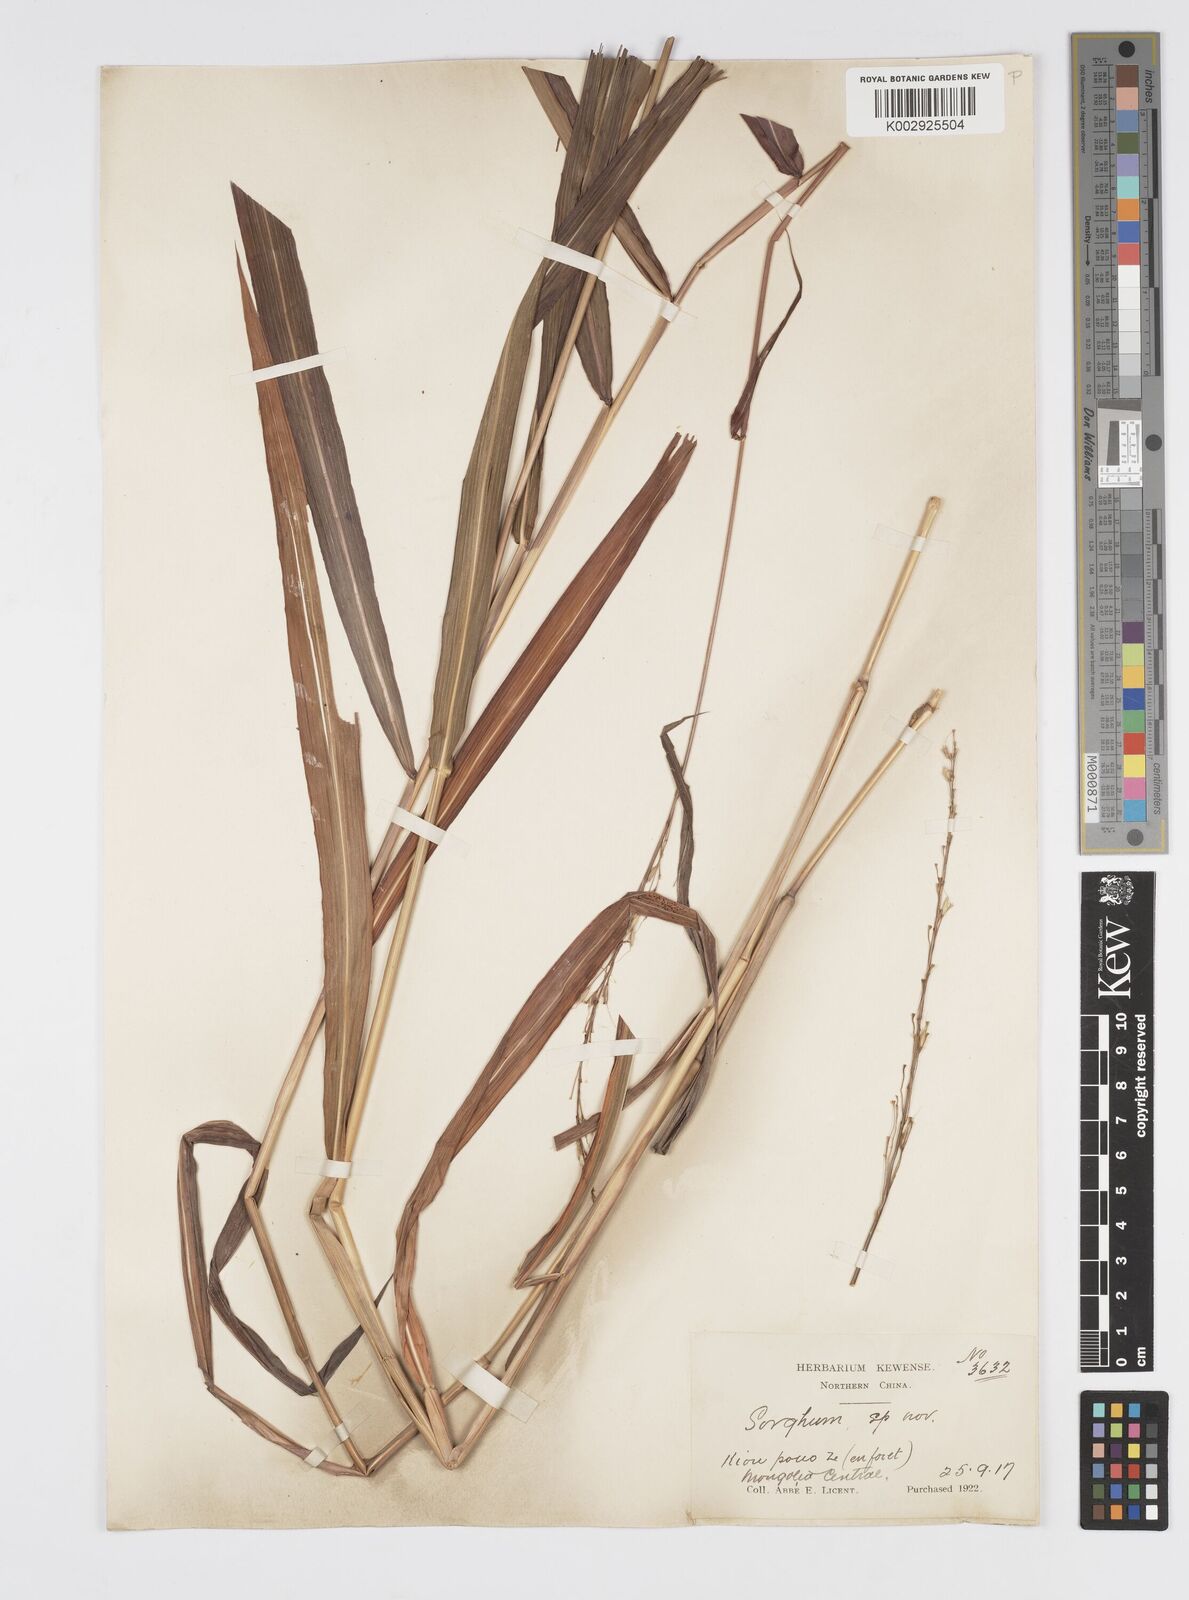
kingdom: Plantae
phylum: Tracheophyta
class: Liliopsida
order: Poales
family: Poaceae
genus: Spodiopogon
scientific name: Spodiopogon sibiricus
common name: Siberian graybeard
